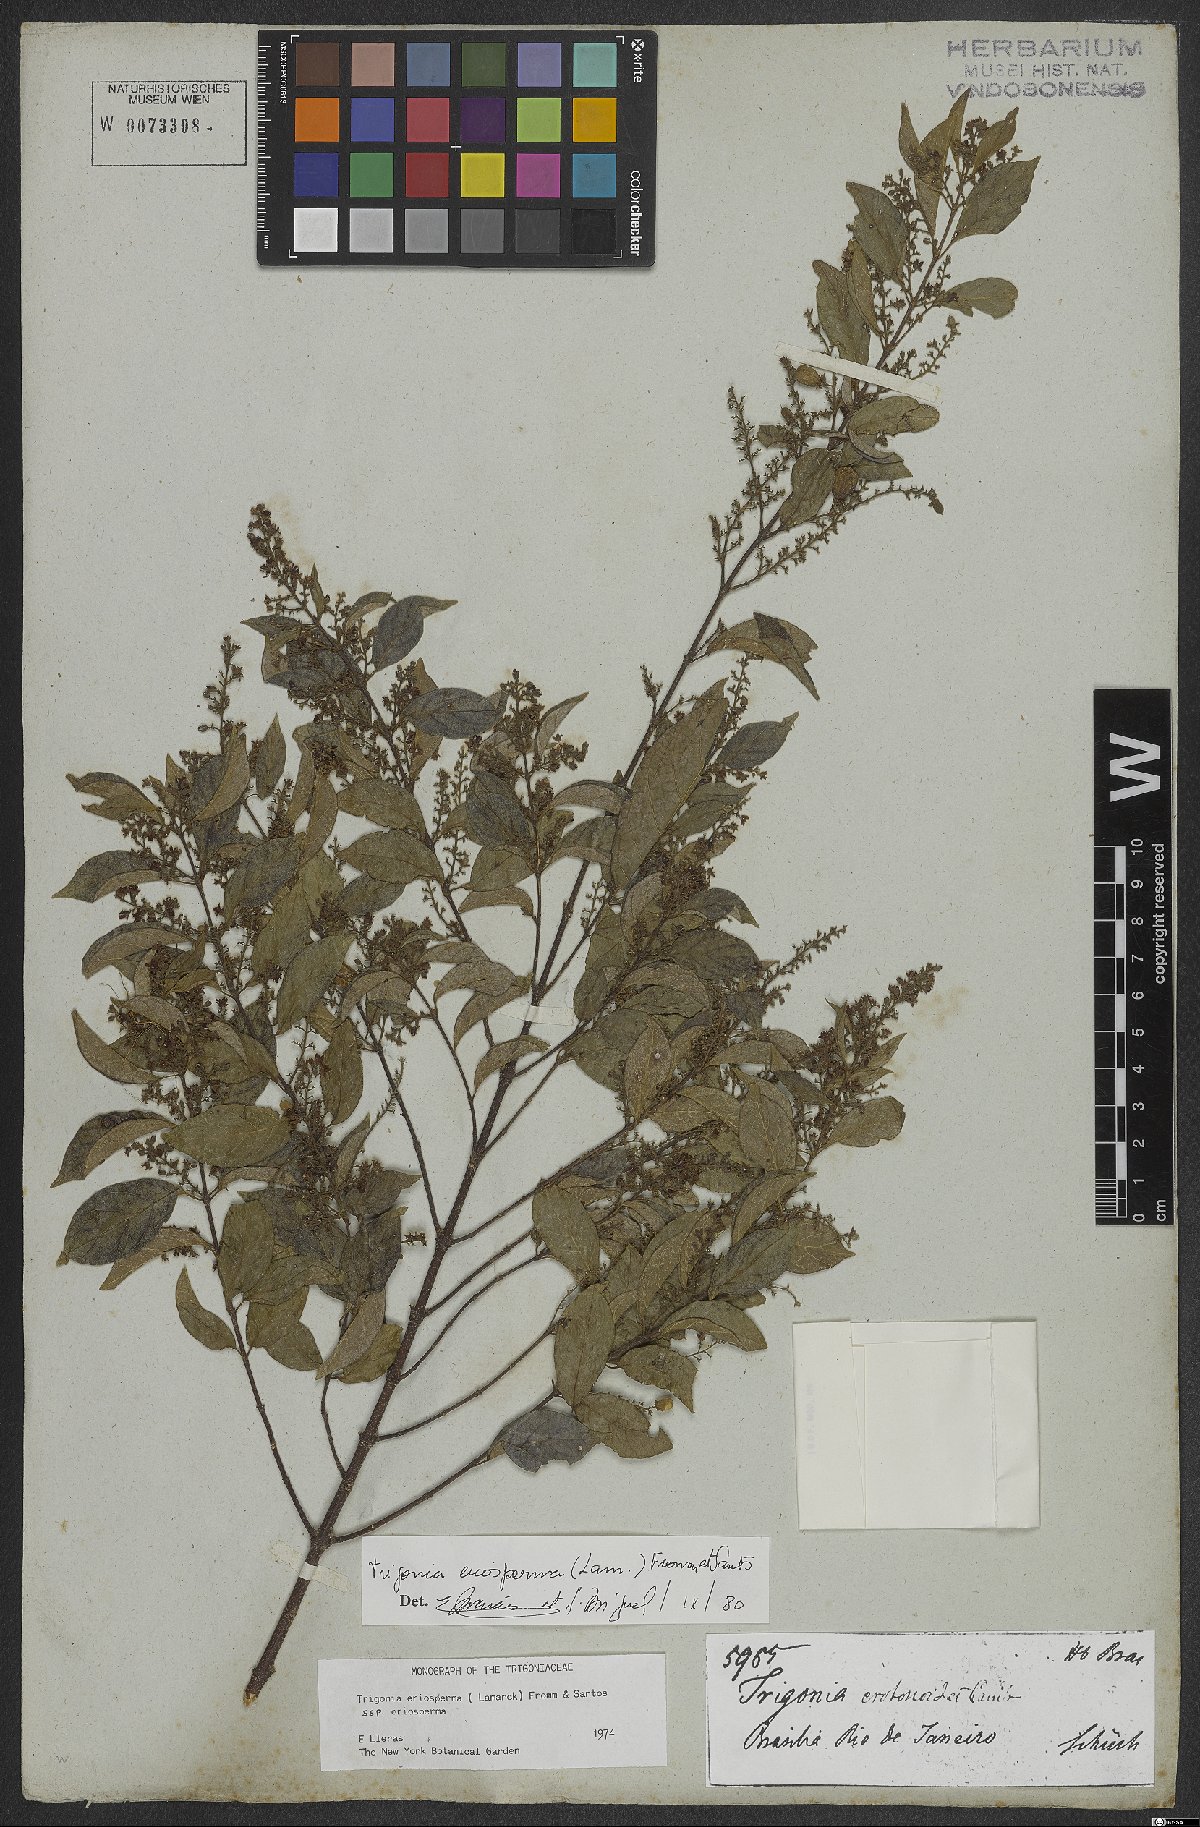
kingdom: Plantae
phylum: Tracheophyta
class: Magnoliopsida
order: Malpighiales
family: Trigoniaceae
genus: Trigonia
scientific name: Trigonia eriosperma
